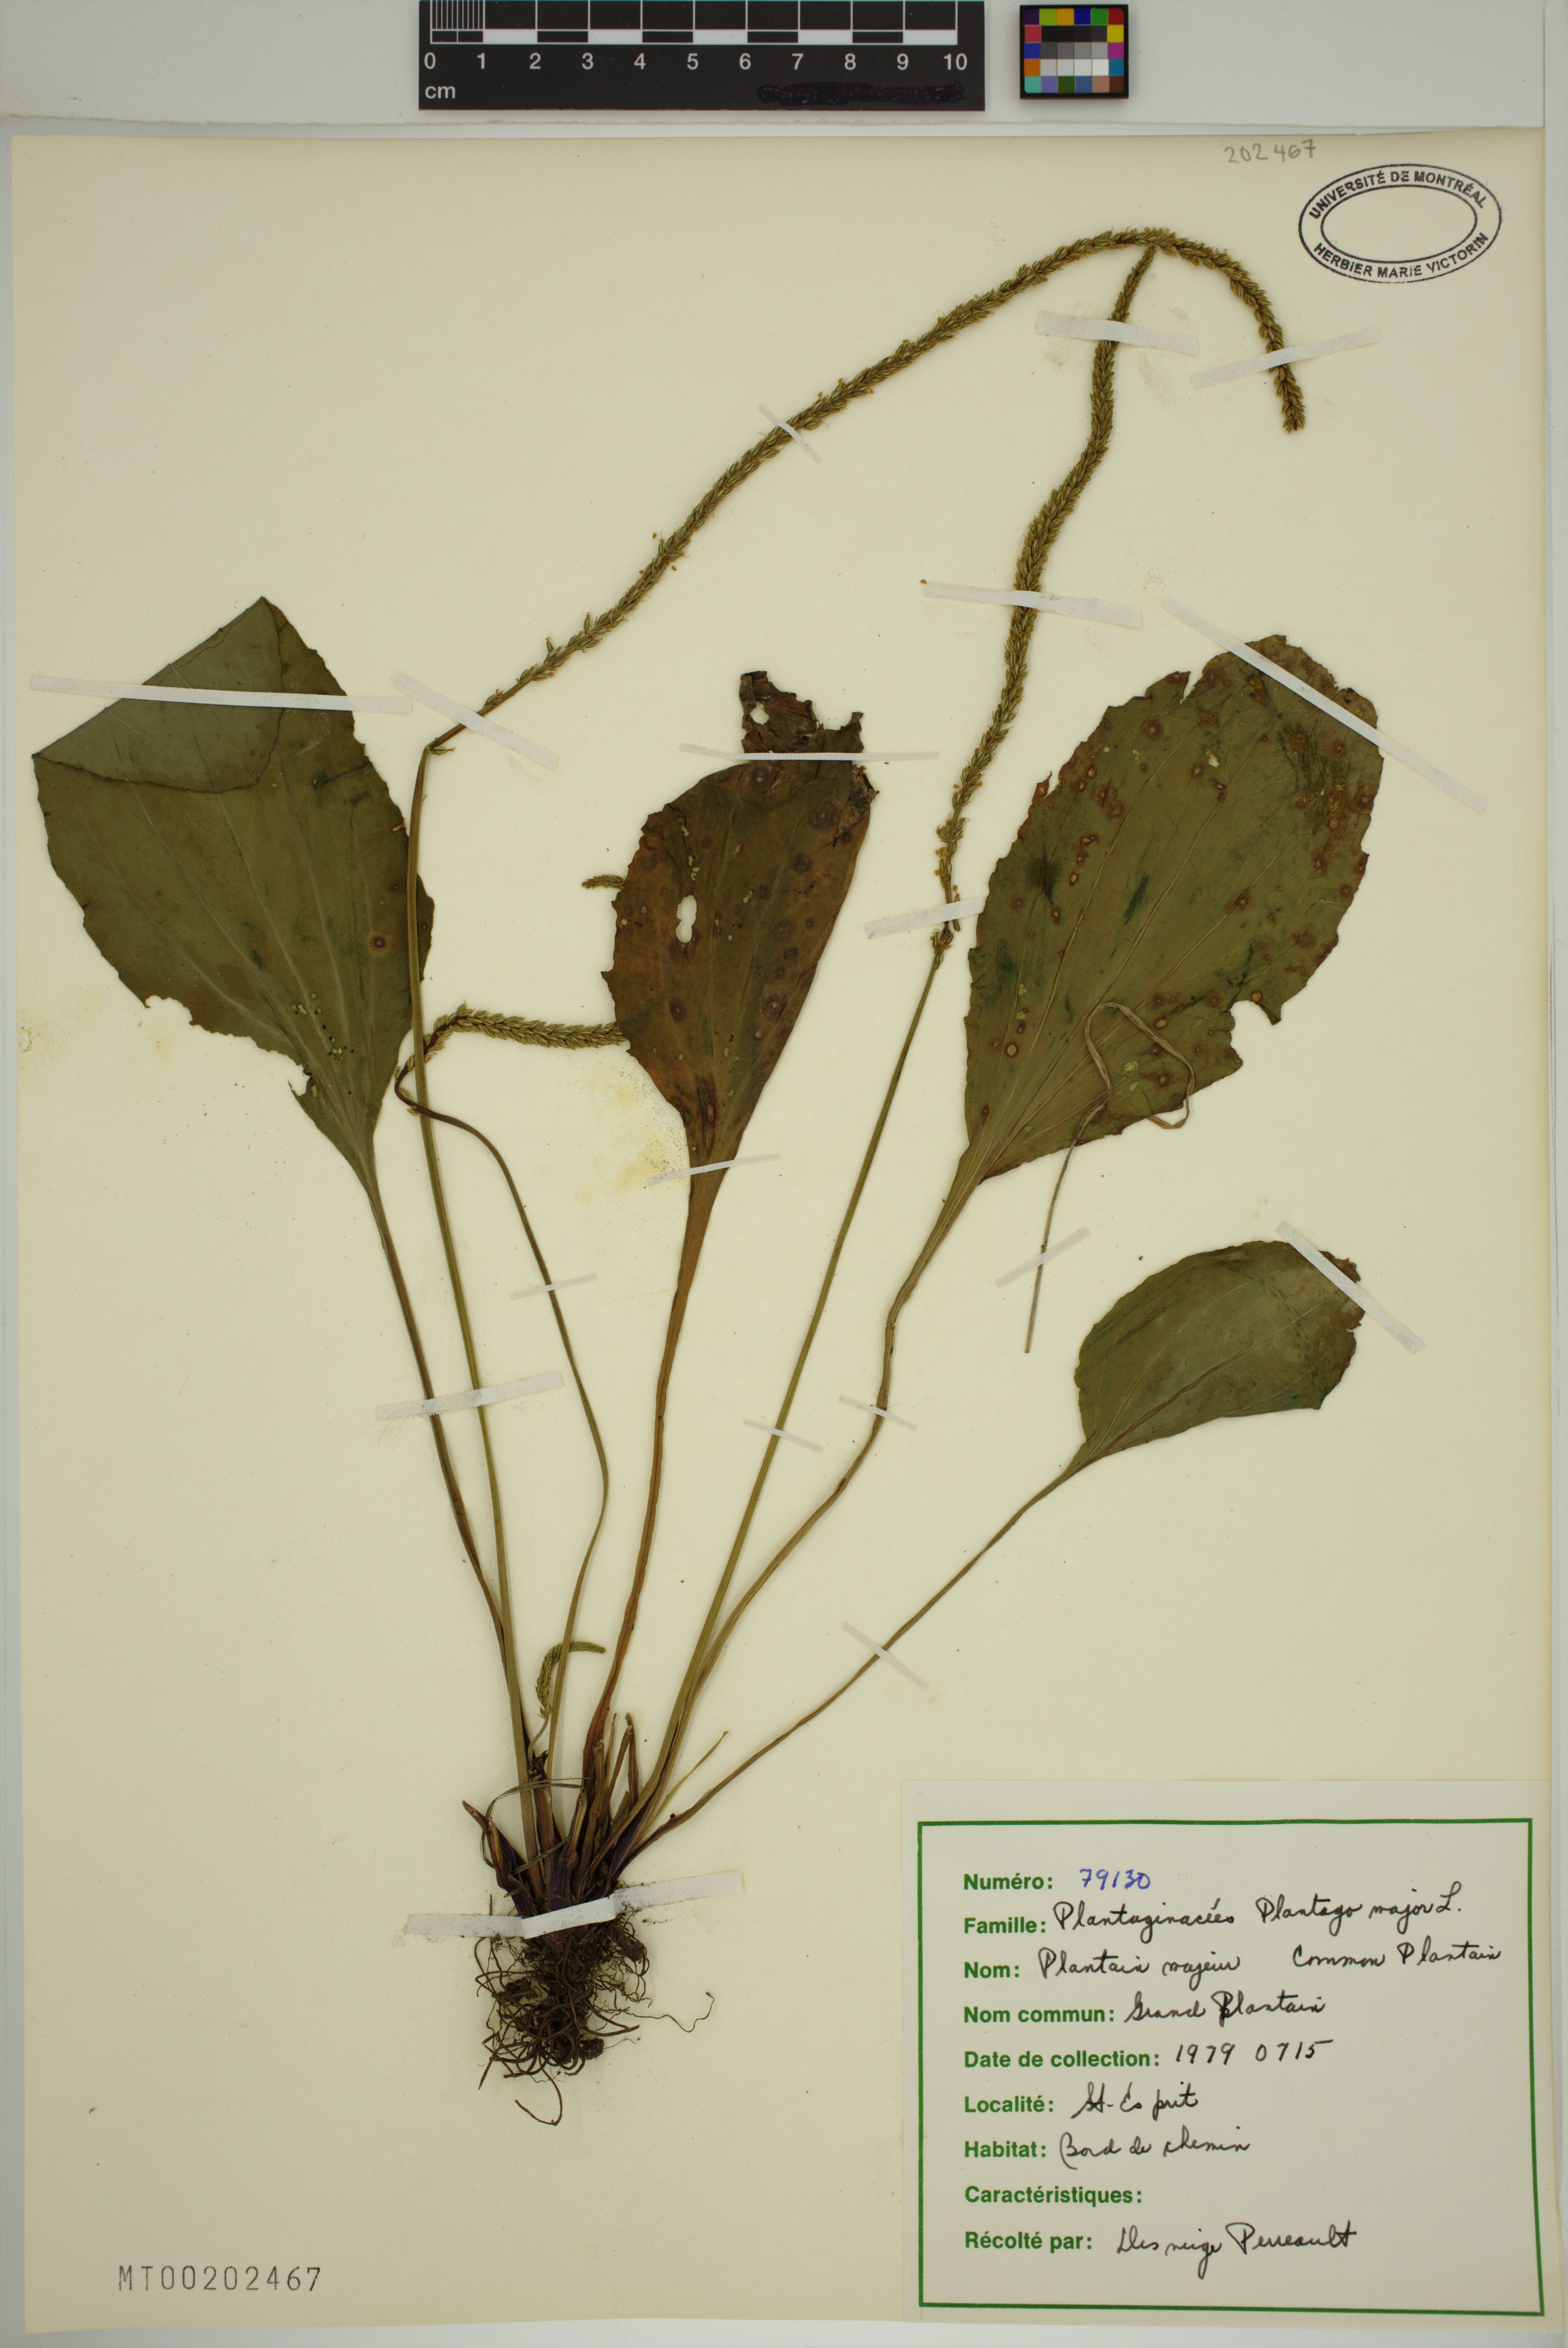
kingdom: Plantae
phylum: Tracheophyta
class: Magnoliopsida
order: Lamiales
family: Plantaginaceae
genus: Plantago
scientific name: Plantago major
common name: Common plantain
